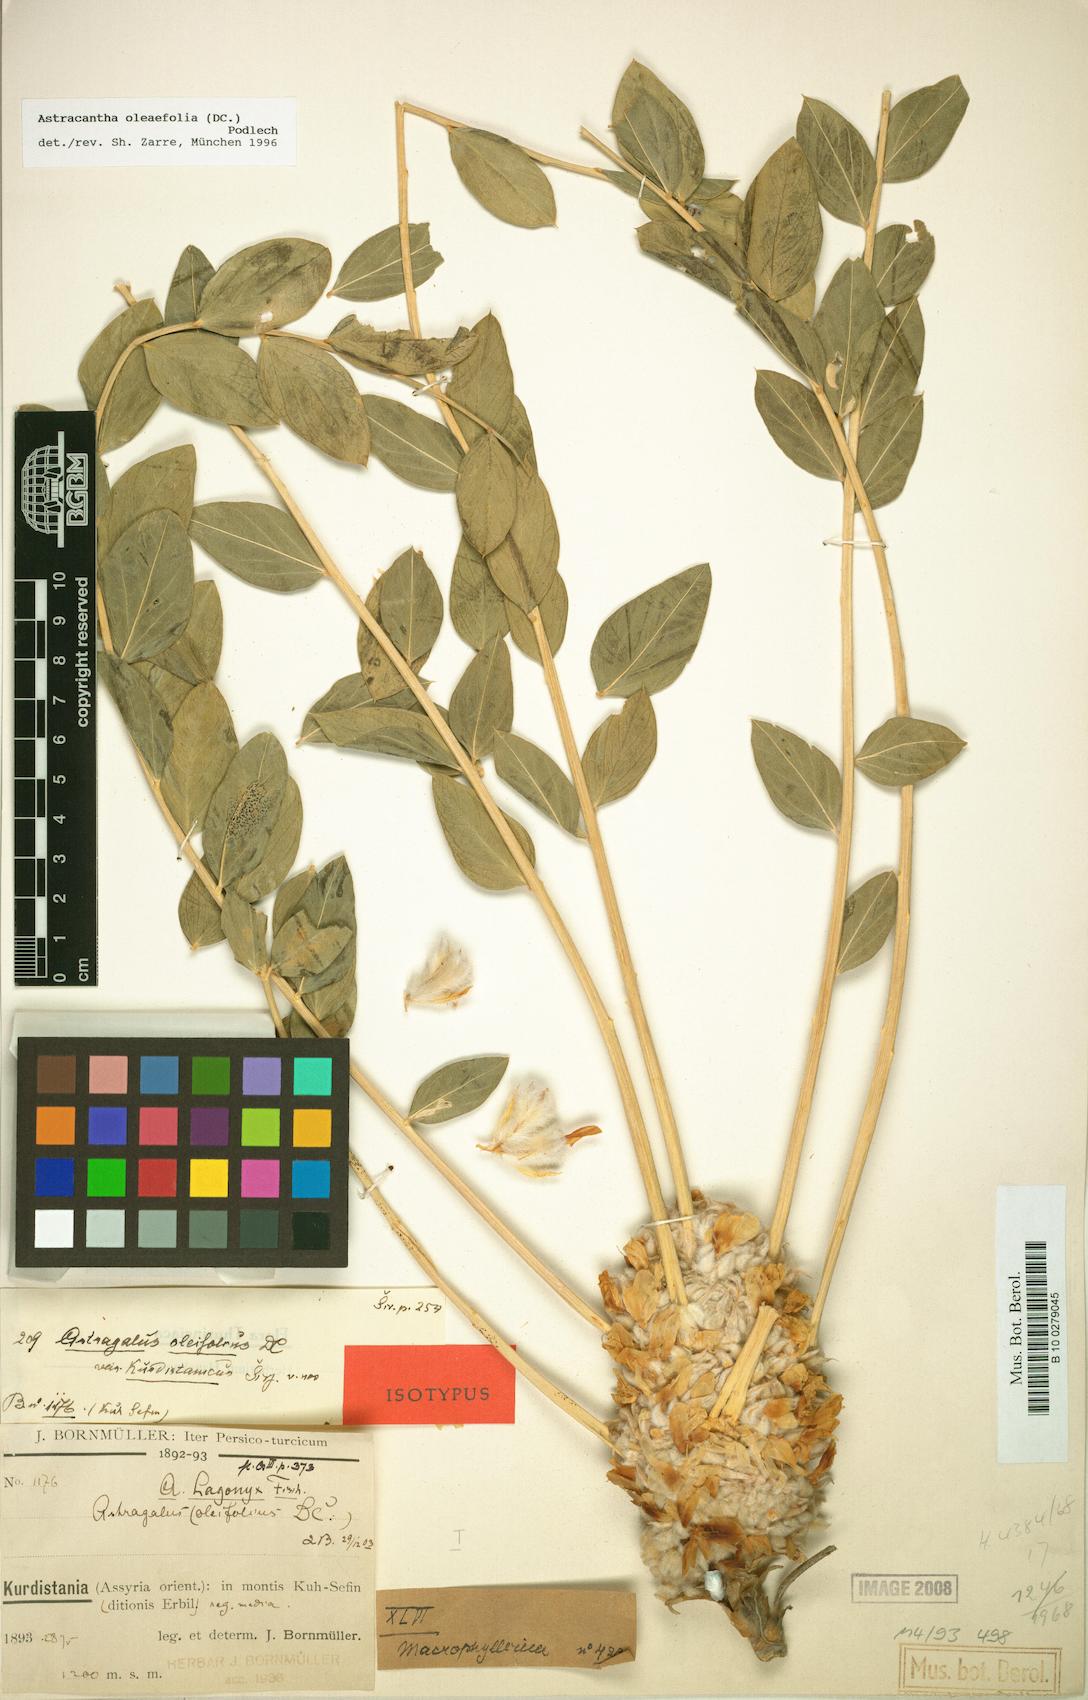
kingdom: Plantae
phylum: Tracheophyta
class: Magnoliopsida
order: Fabales
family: Fabaceae
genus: Astragalus
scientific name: Astragalus oleifolius
